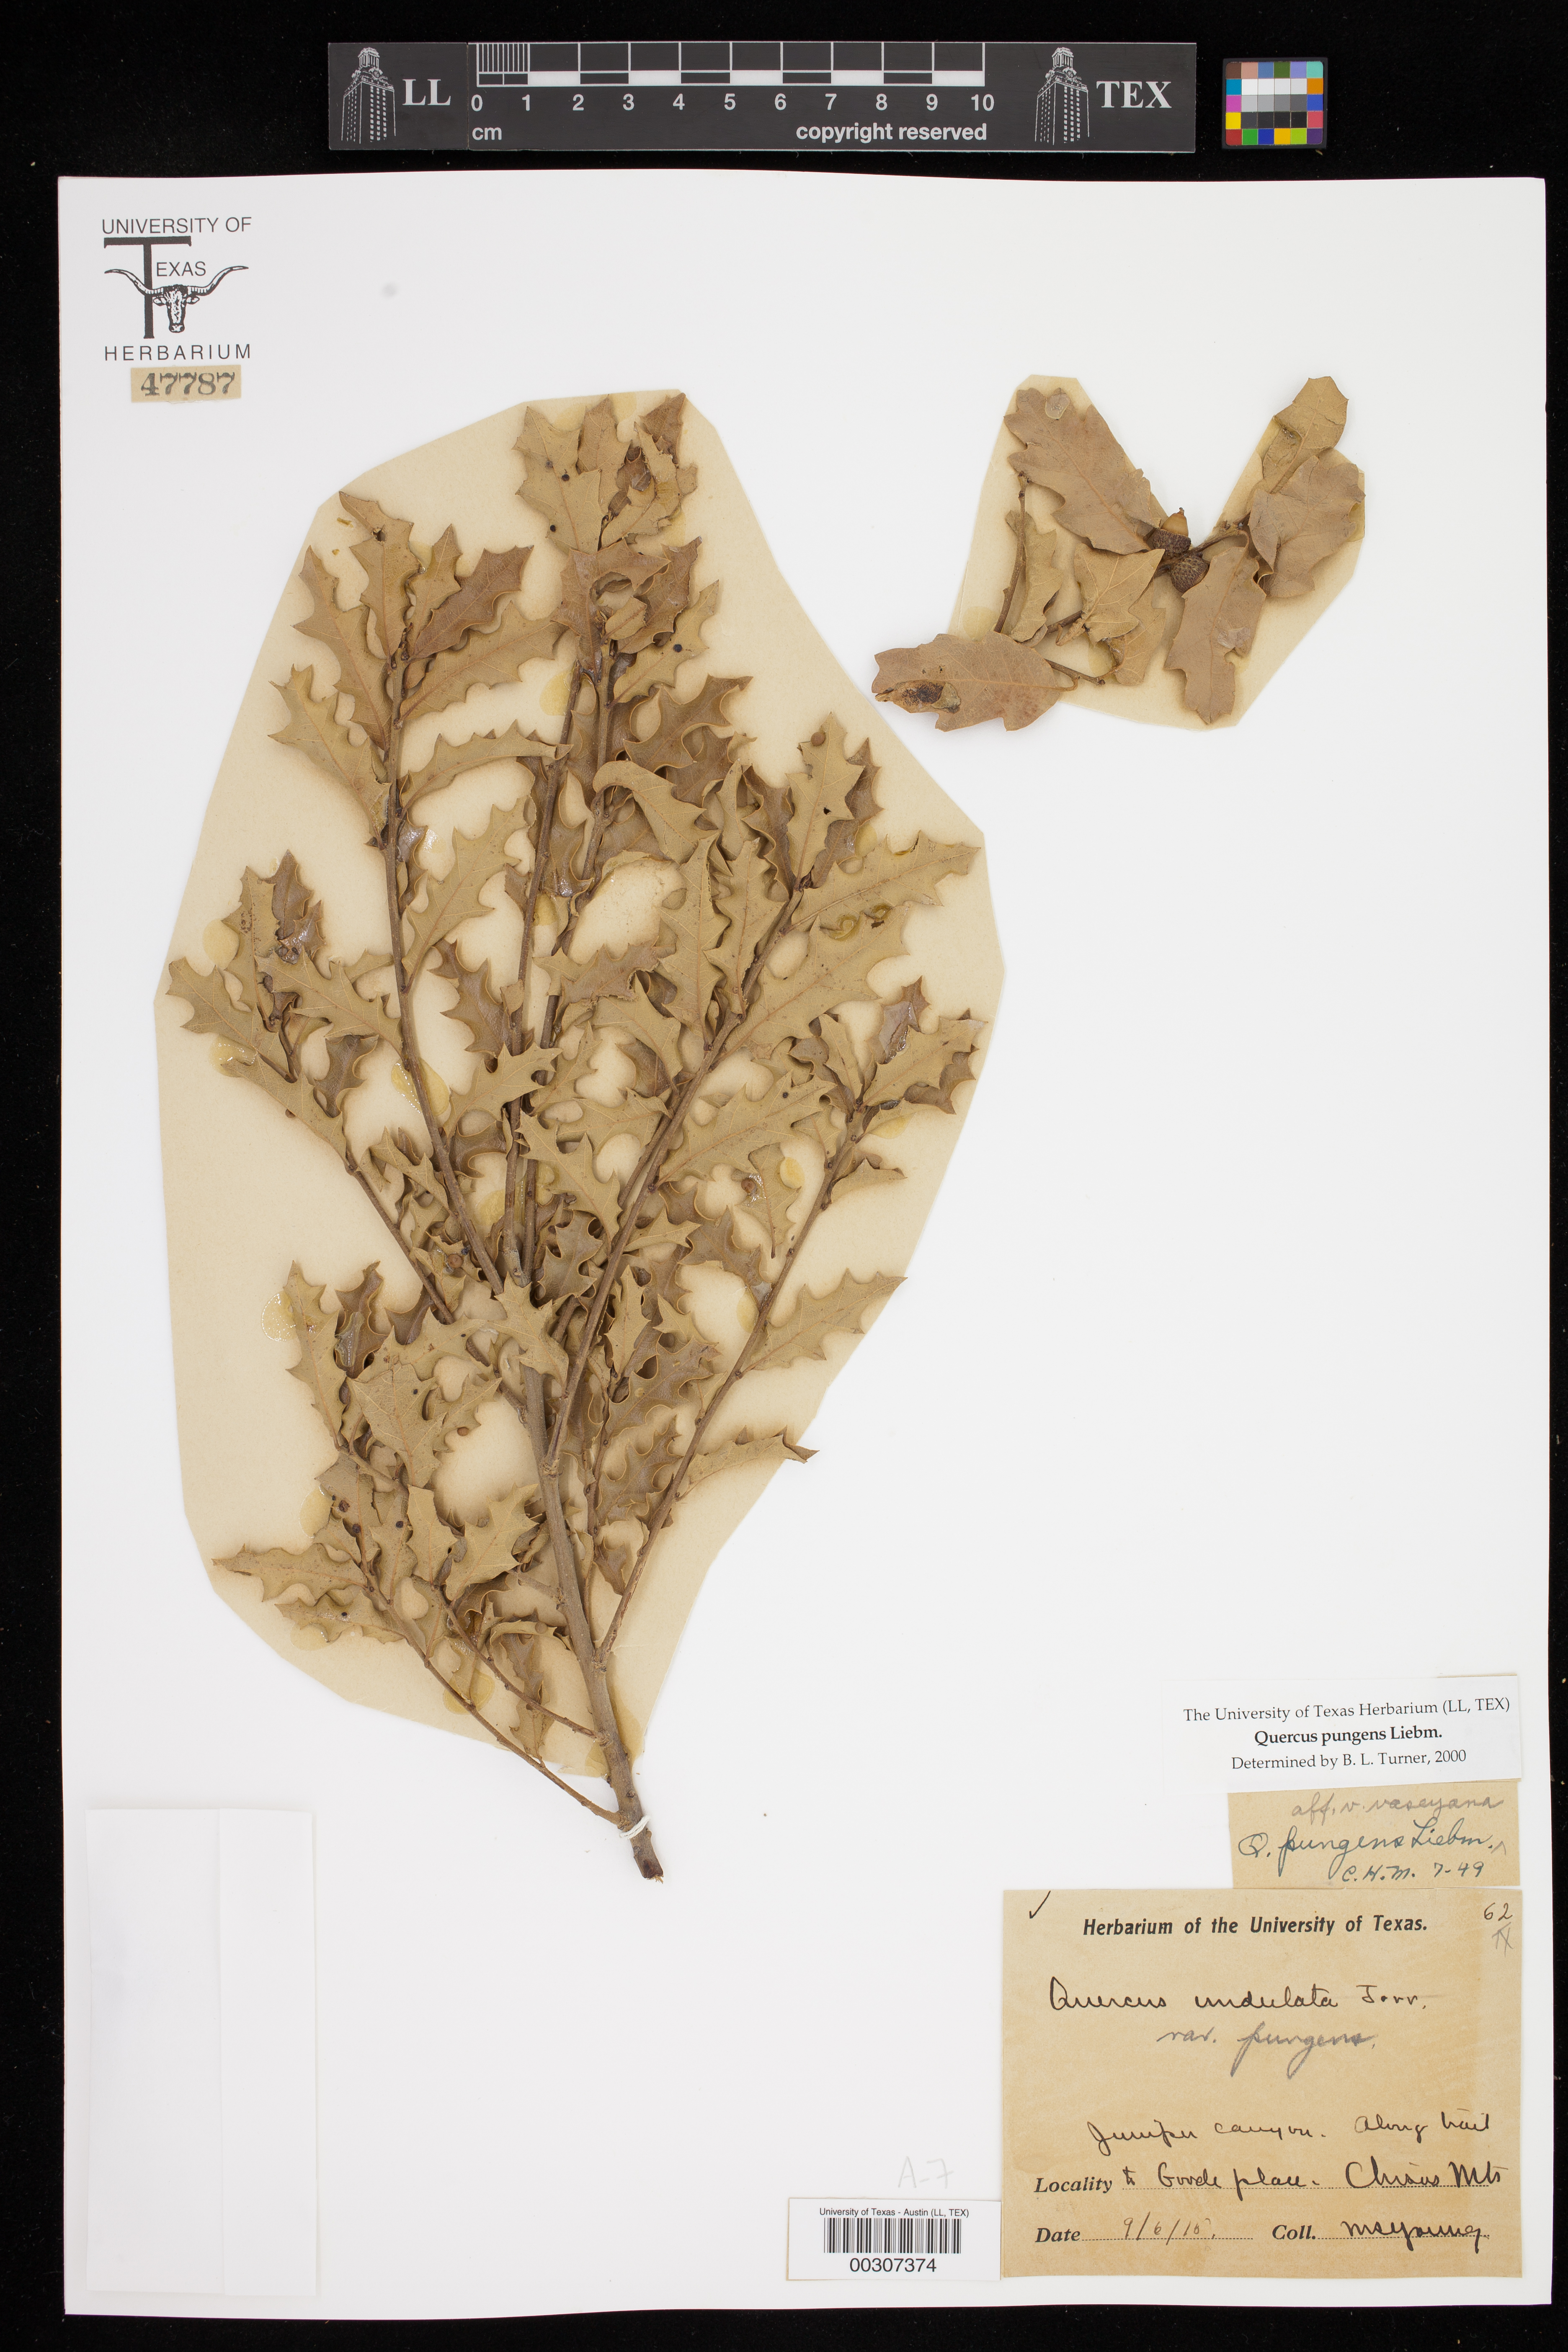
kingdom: Plantae
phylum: Tracheophyta
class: Magnoliopsida
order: Fagales
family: Fagaceae
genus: Quercus
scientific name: Quercus pungens
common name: Pungent oak
